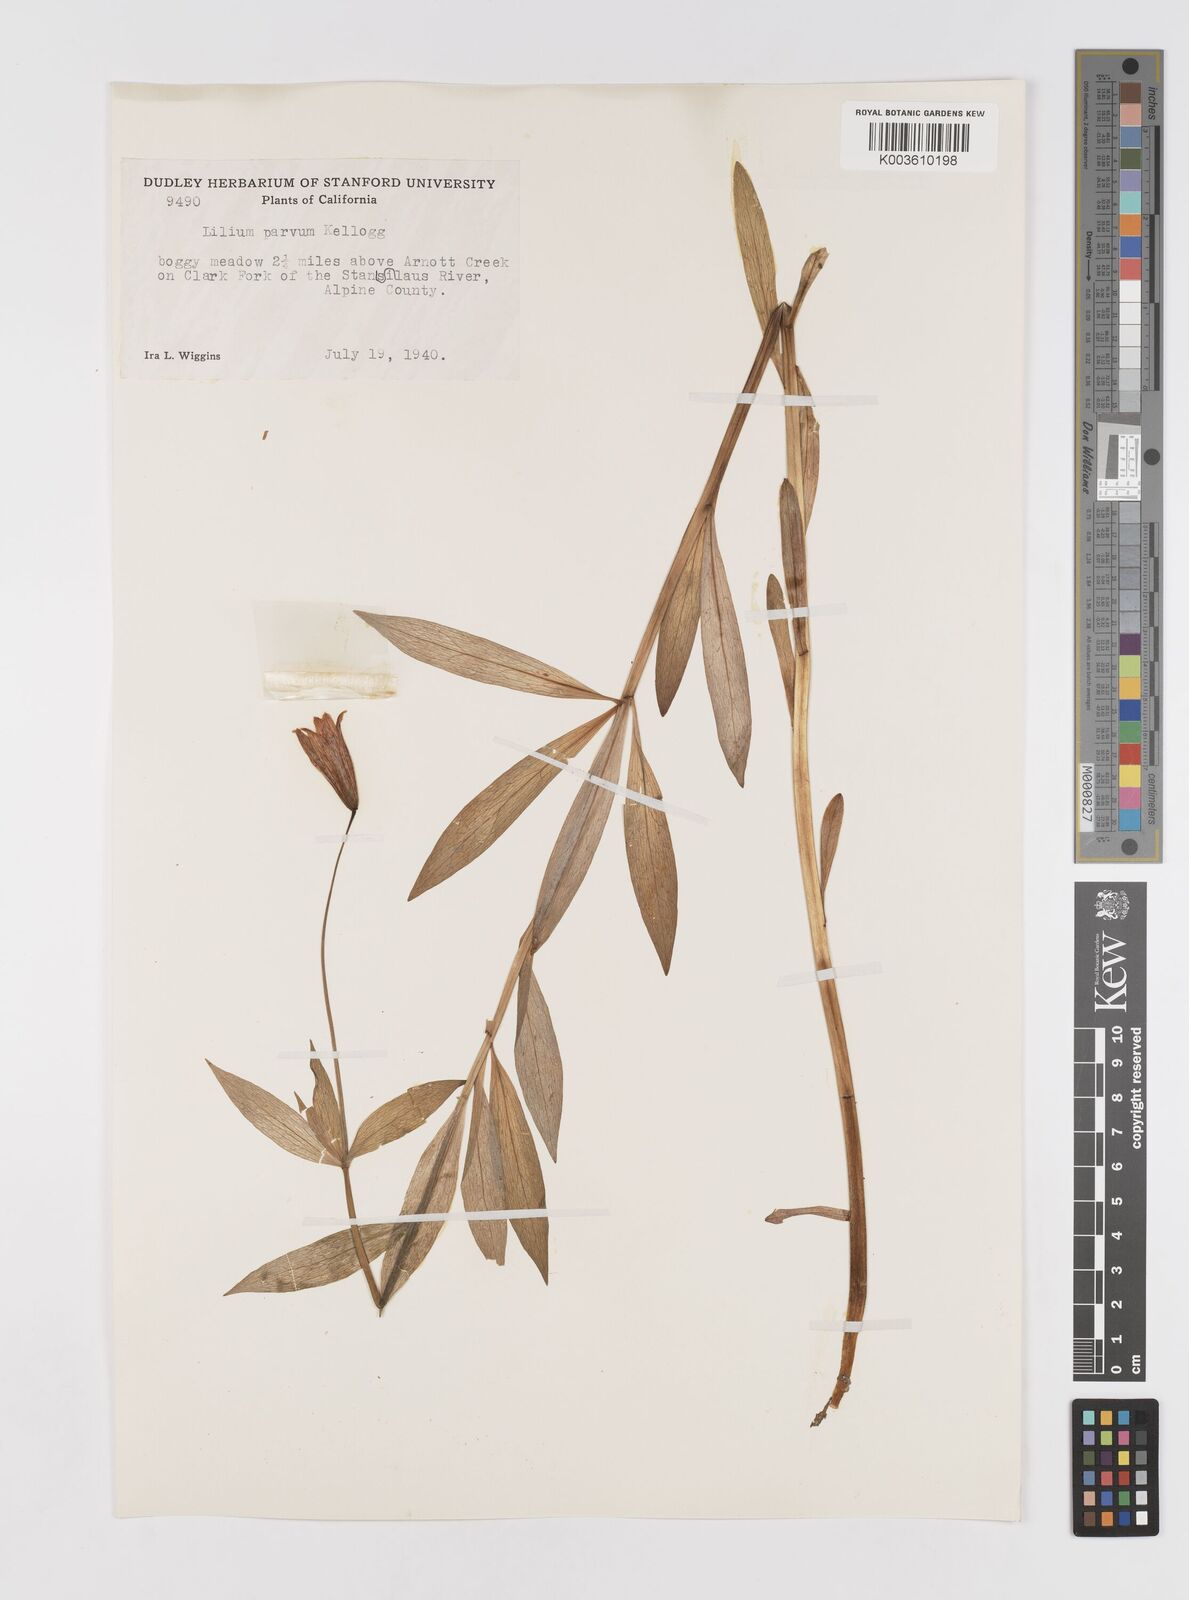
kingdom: Plantae
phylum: Tracheophyta
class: Liliopsida
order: Liliales
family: Liliaceae
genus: Lilium
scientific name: Lilium parvum
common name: Alpine lily
